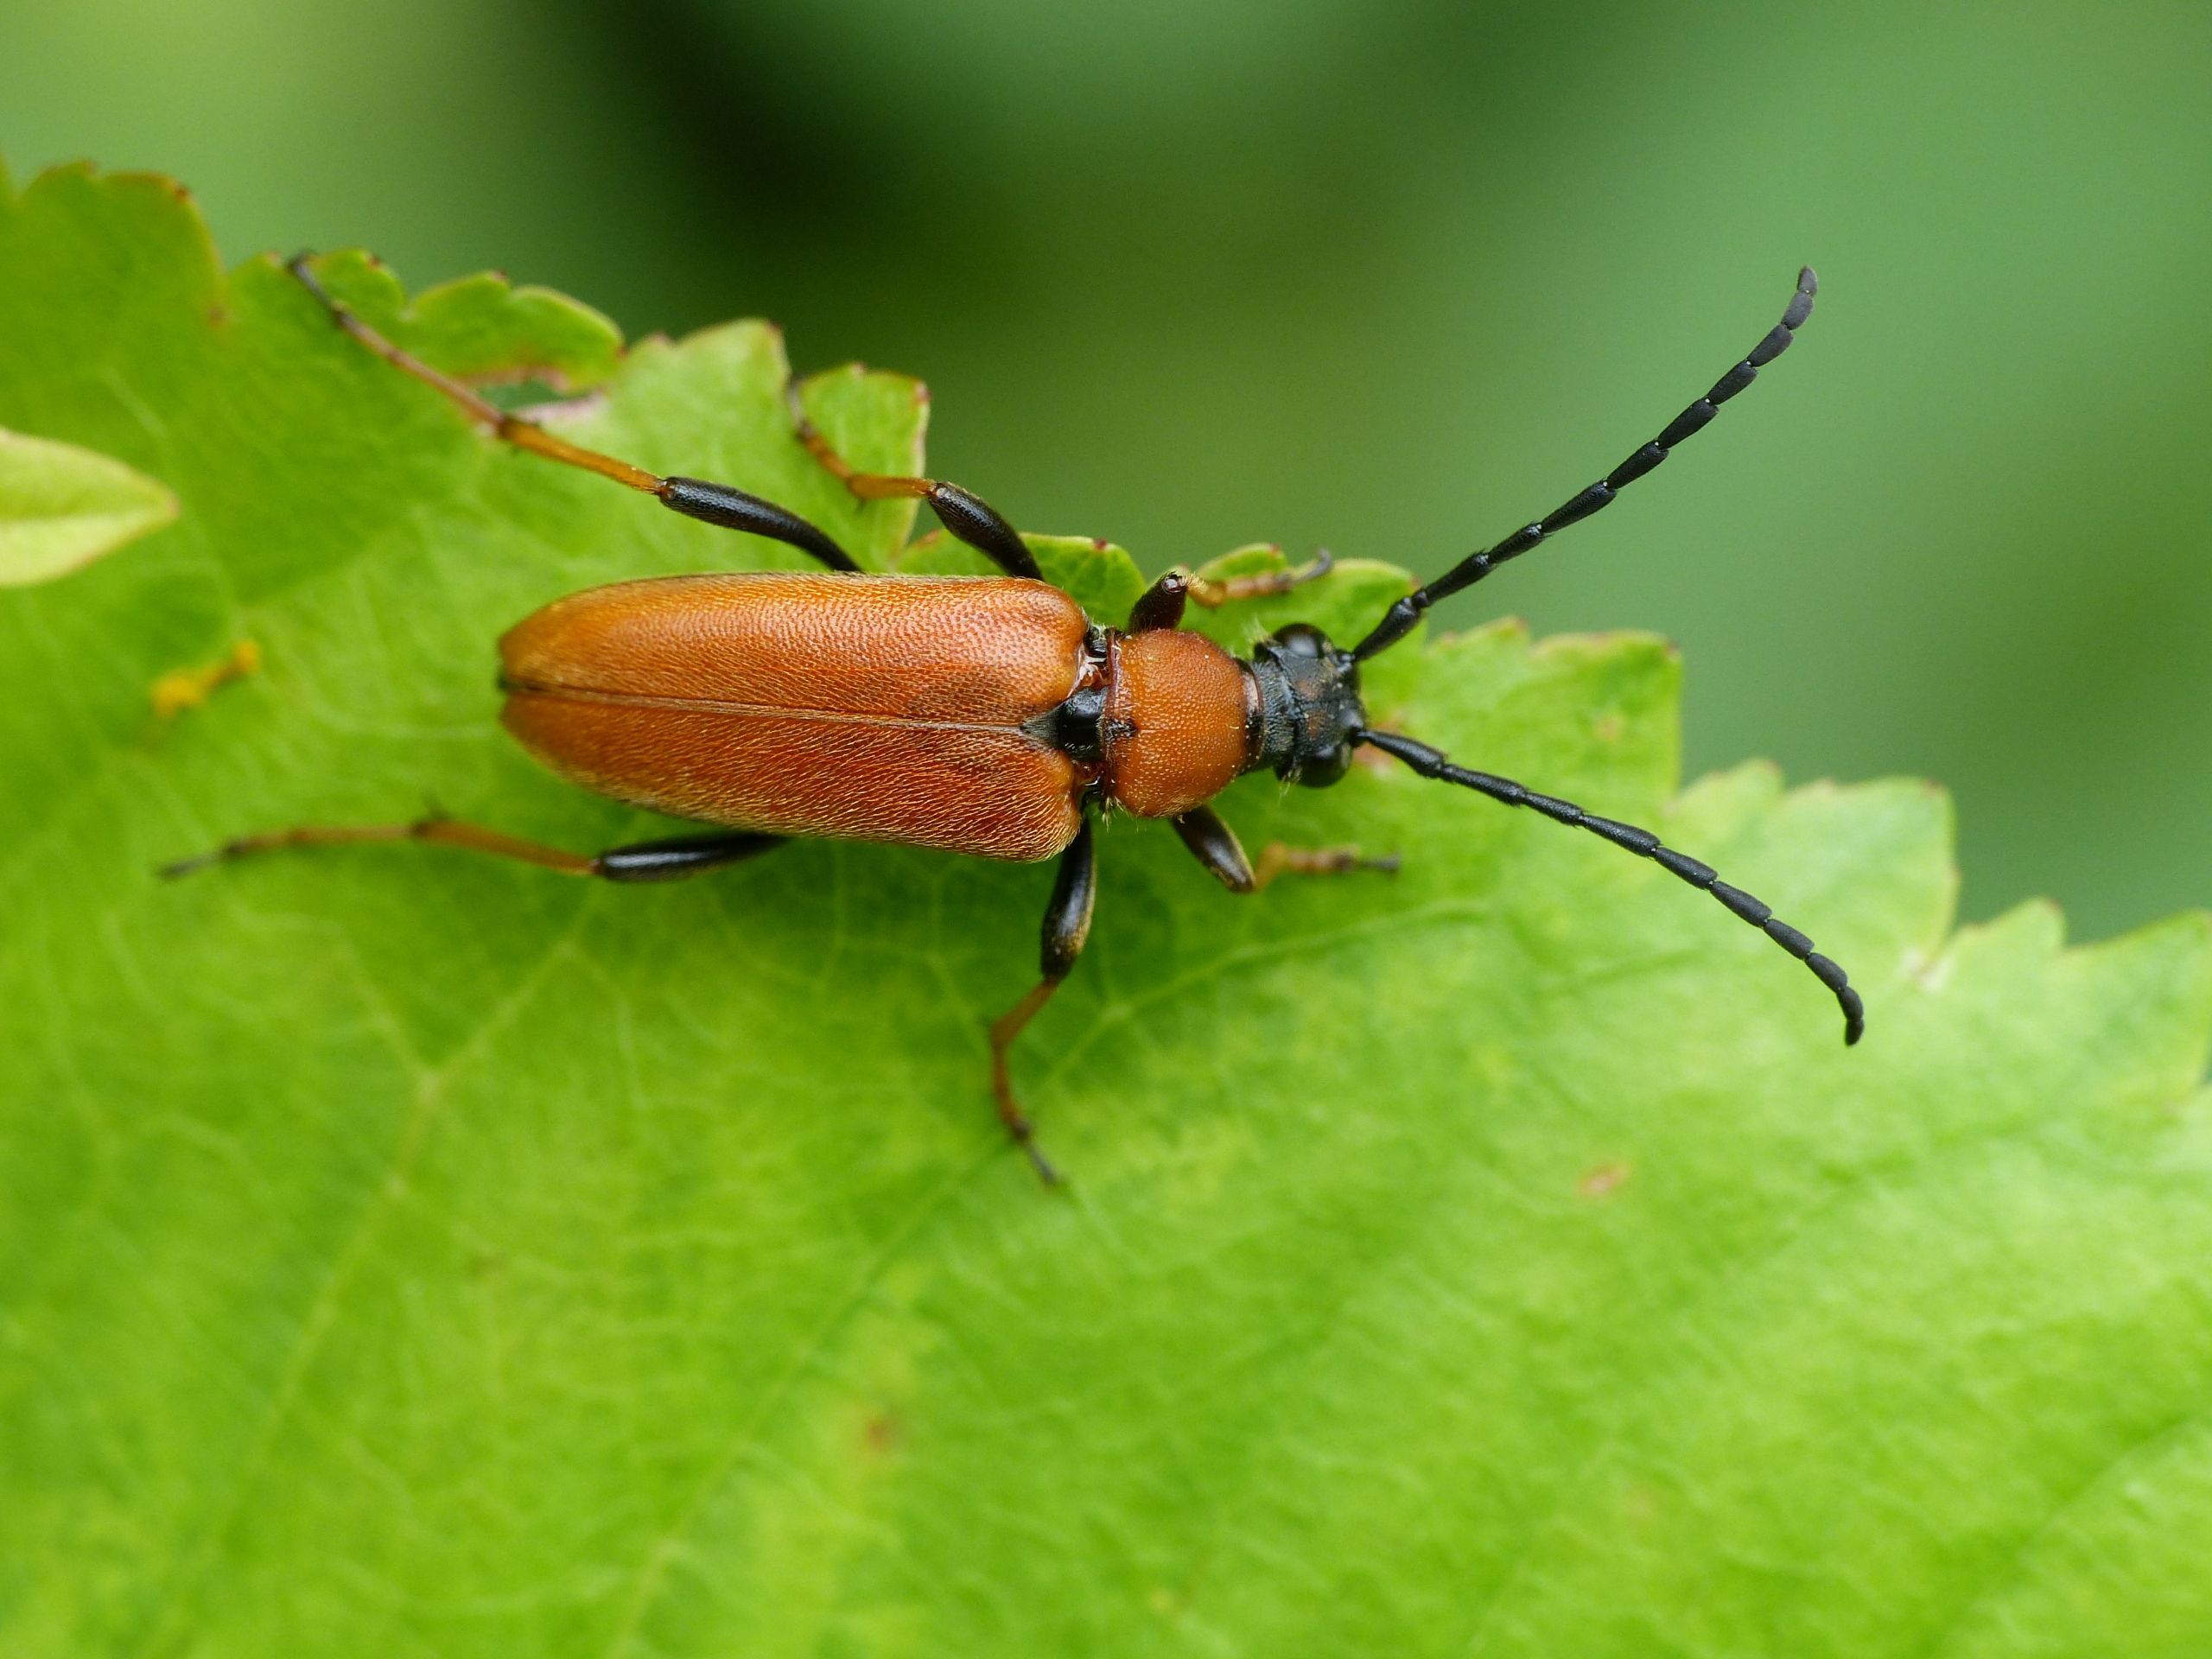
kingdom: Animalia
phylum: Arthropoda
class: Insecta
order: Coleoptera
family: Cerambycidae
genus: Stictoleptura
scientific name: Stictoleptura rubra
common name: Rød blomsterbuk
